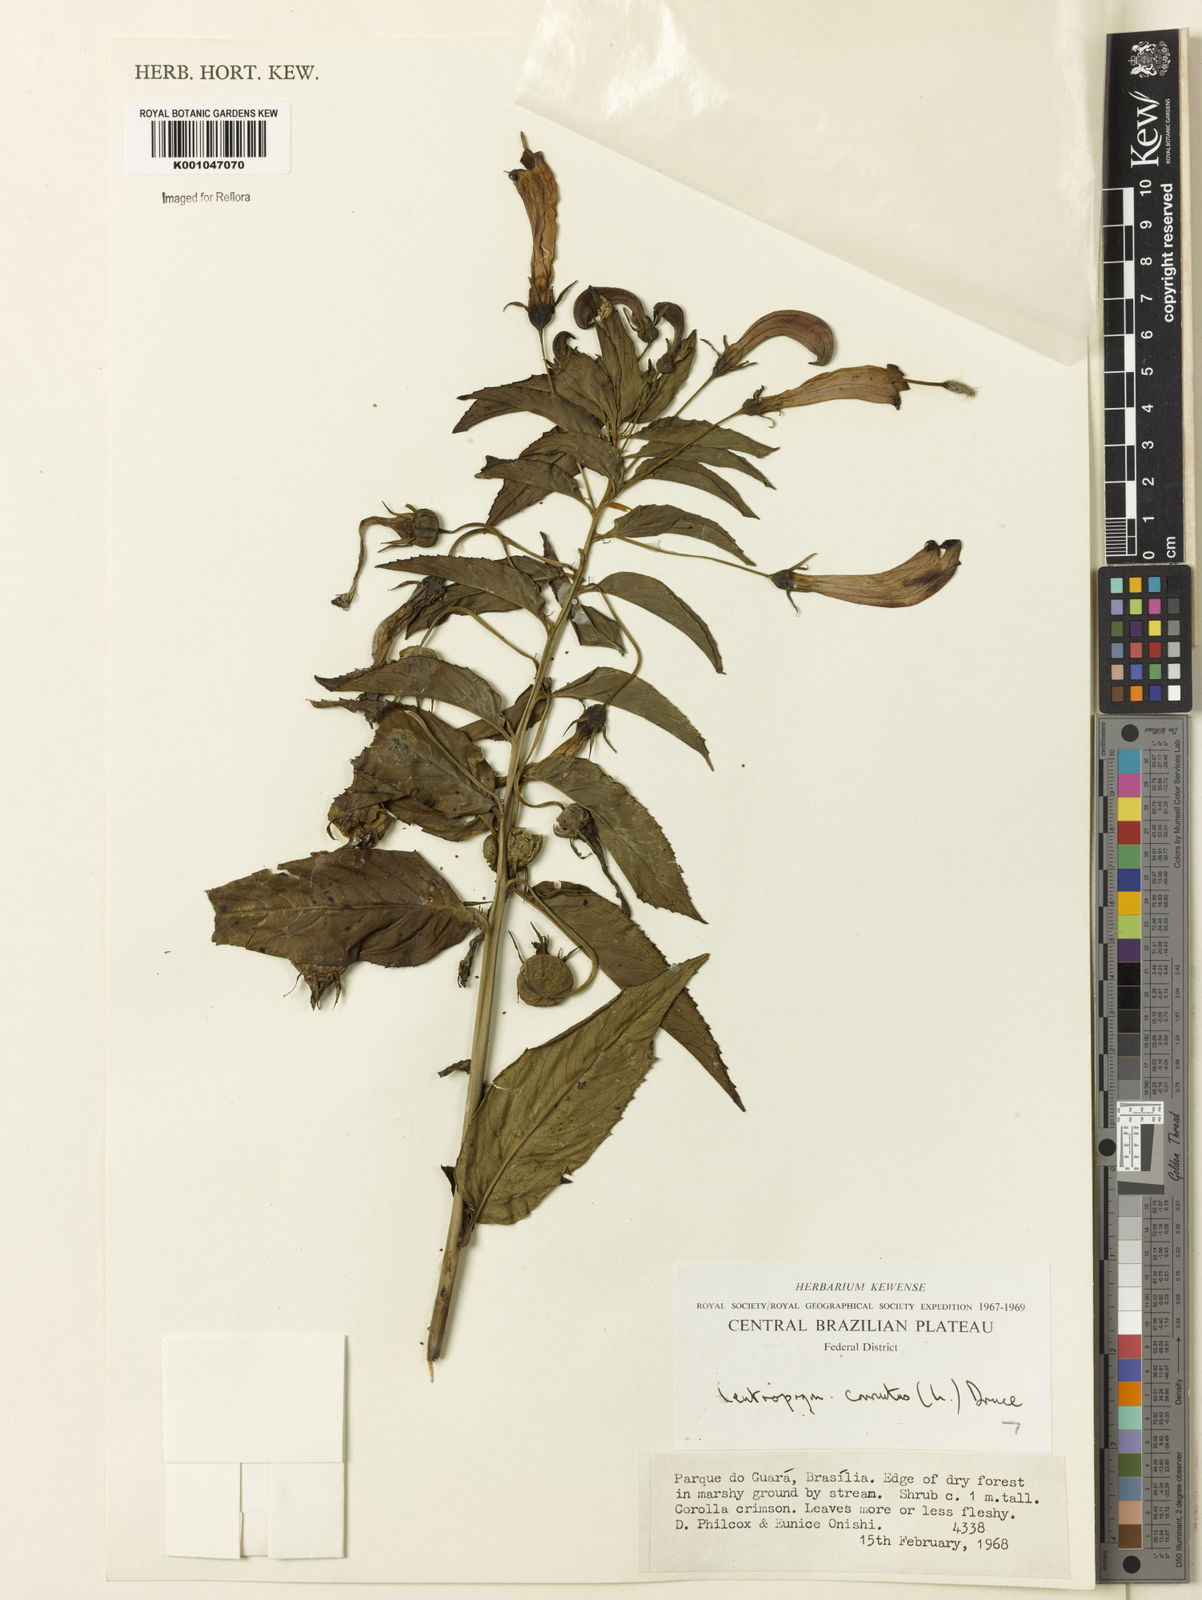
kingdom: Plantae
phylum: Tracheophyta
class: Magnoliopsida
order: Asterales
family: Campanulaceae
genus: Centropogon
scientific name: Centropogon cornutus
